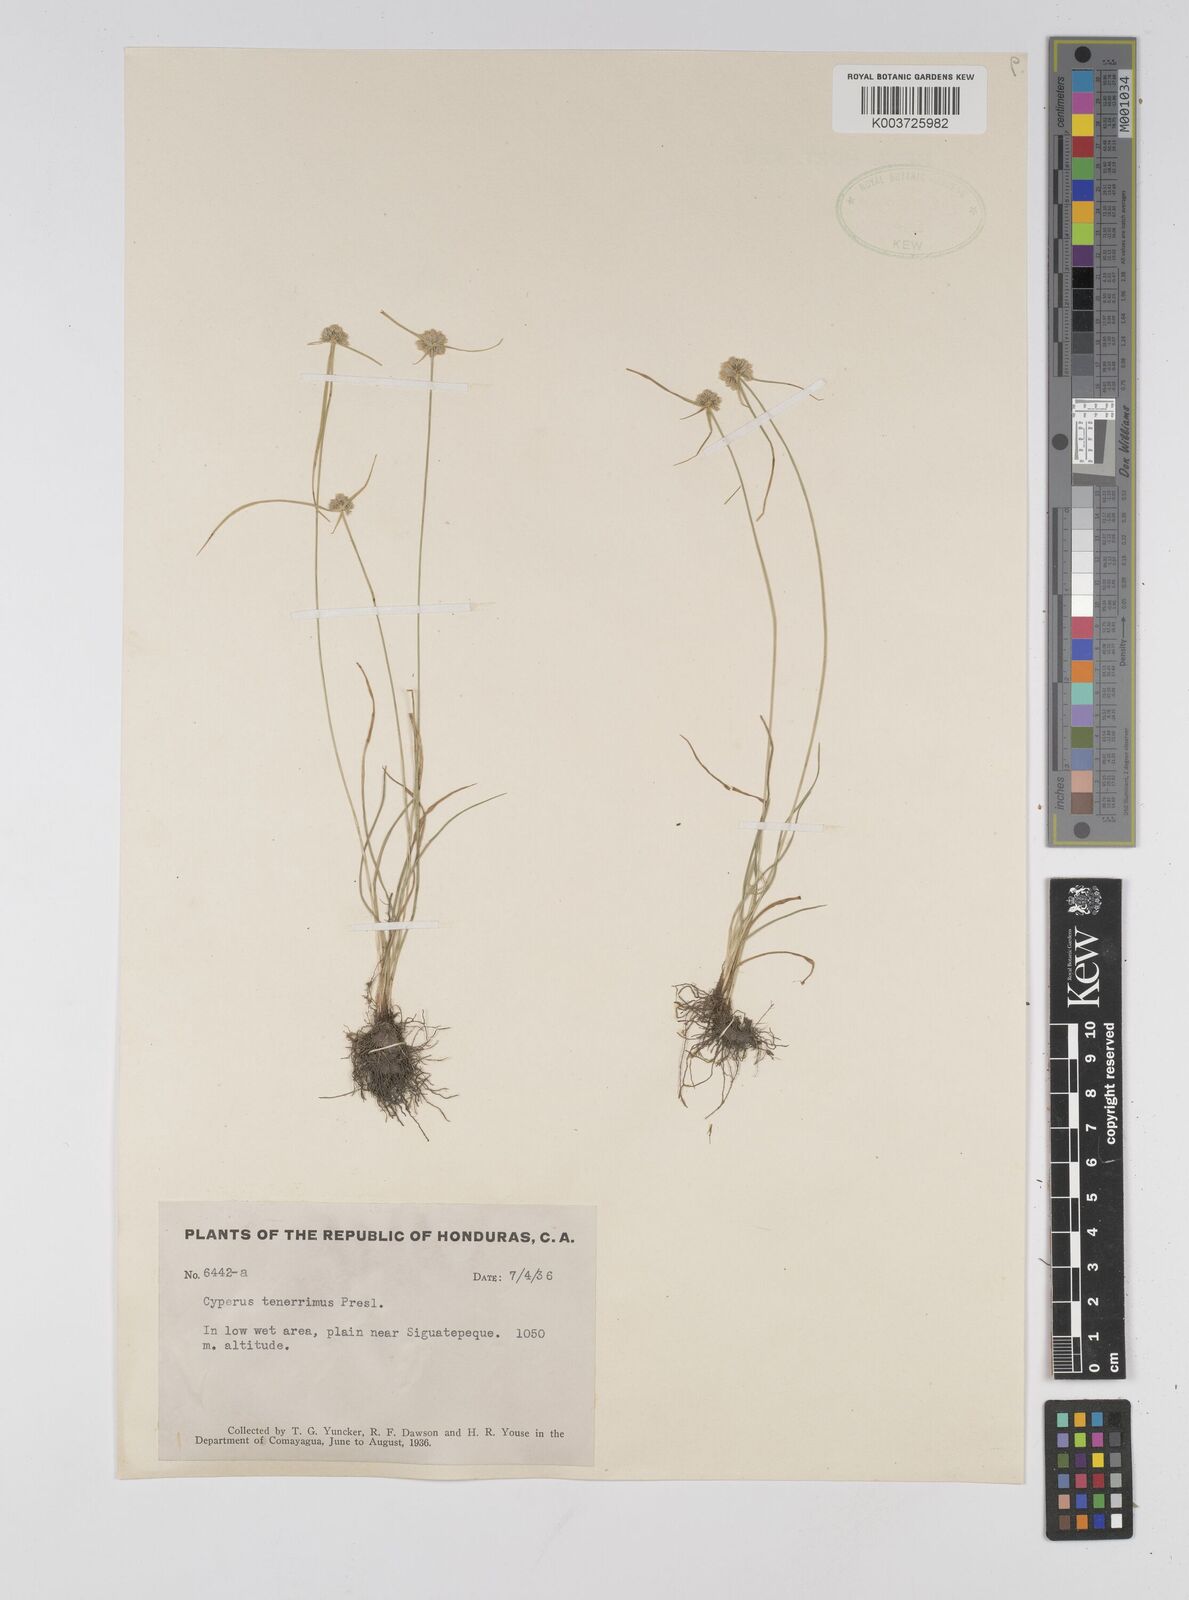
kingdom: Plantae
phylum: Tracheophyta
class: Liliopsida
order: Poales
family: Cyperaceae
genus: Cyperus
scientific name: Cyperus tenerrimus
